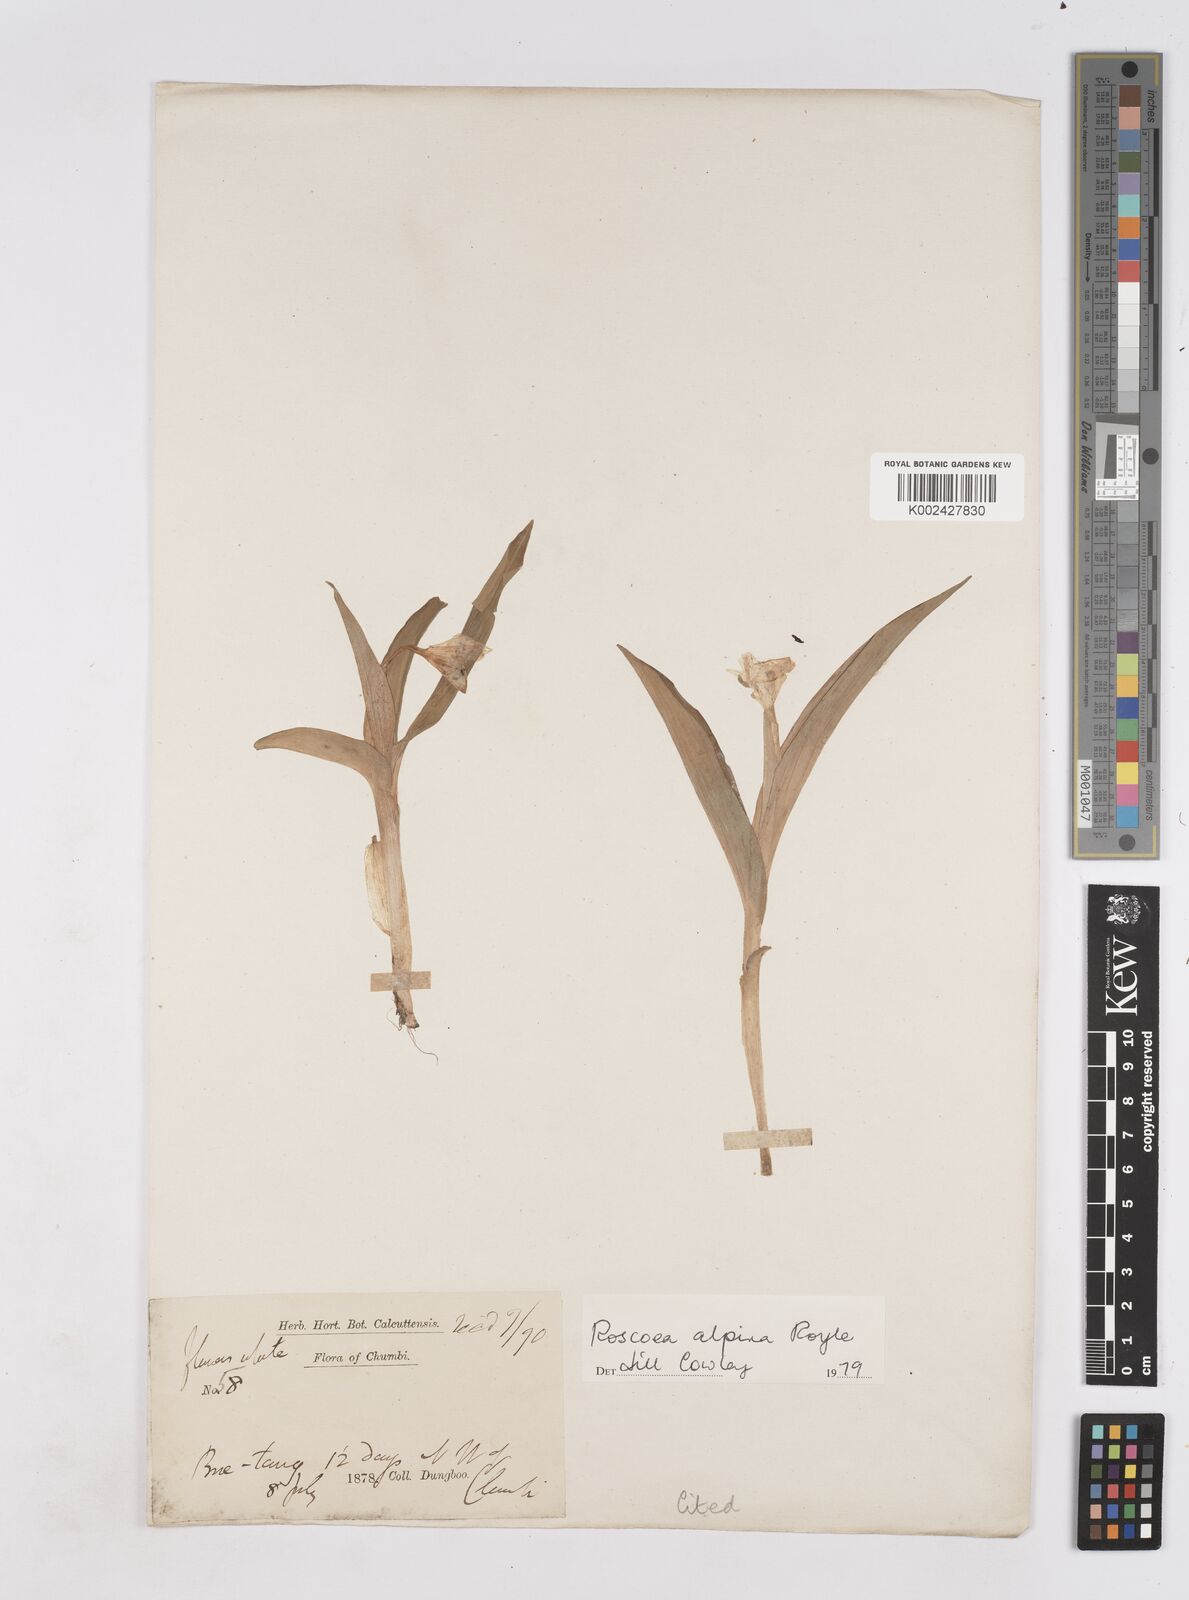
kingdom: Plantae
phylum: Tracheophyta
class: Liliopsida
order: Zingiberales
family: Zingiberaceae
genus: Roscoea
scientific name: Roscoea alpina
